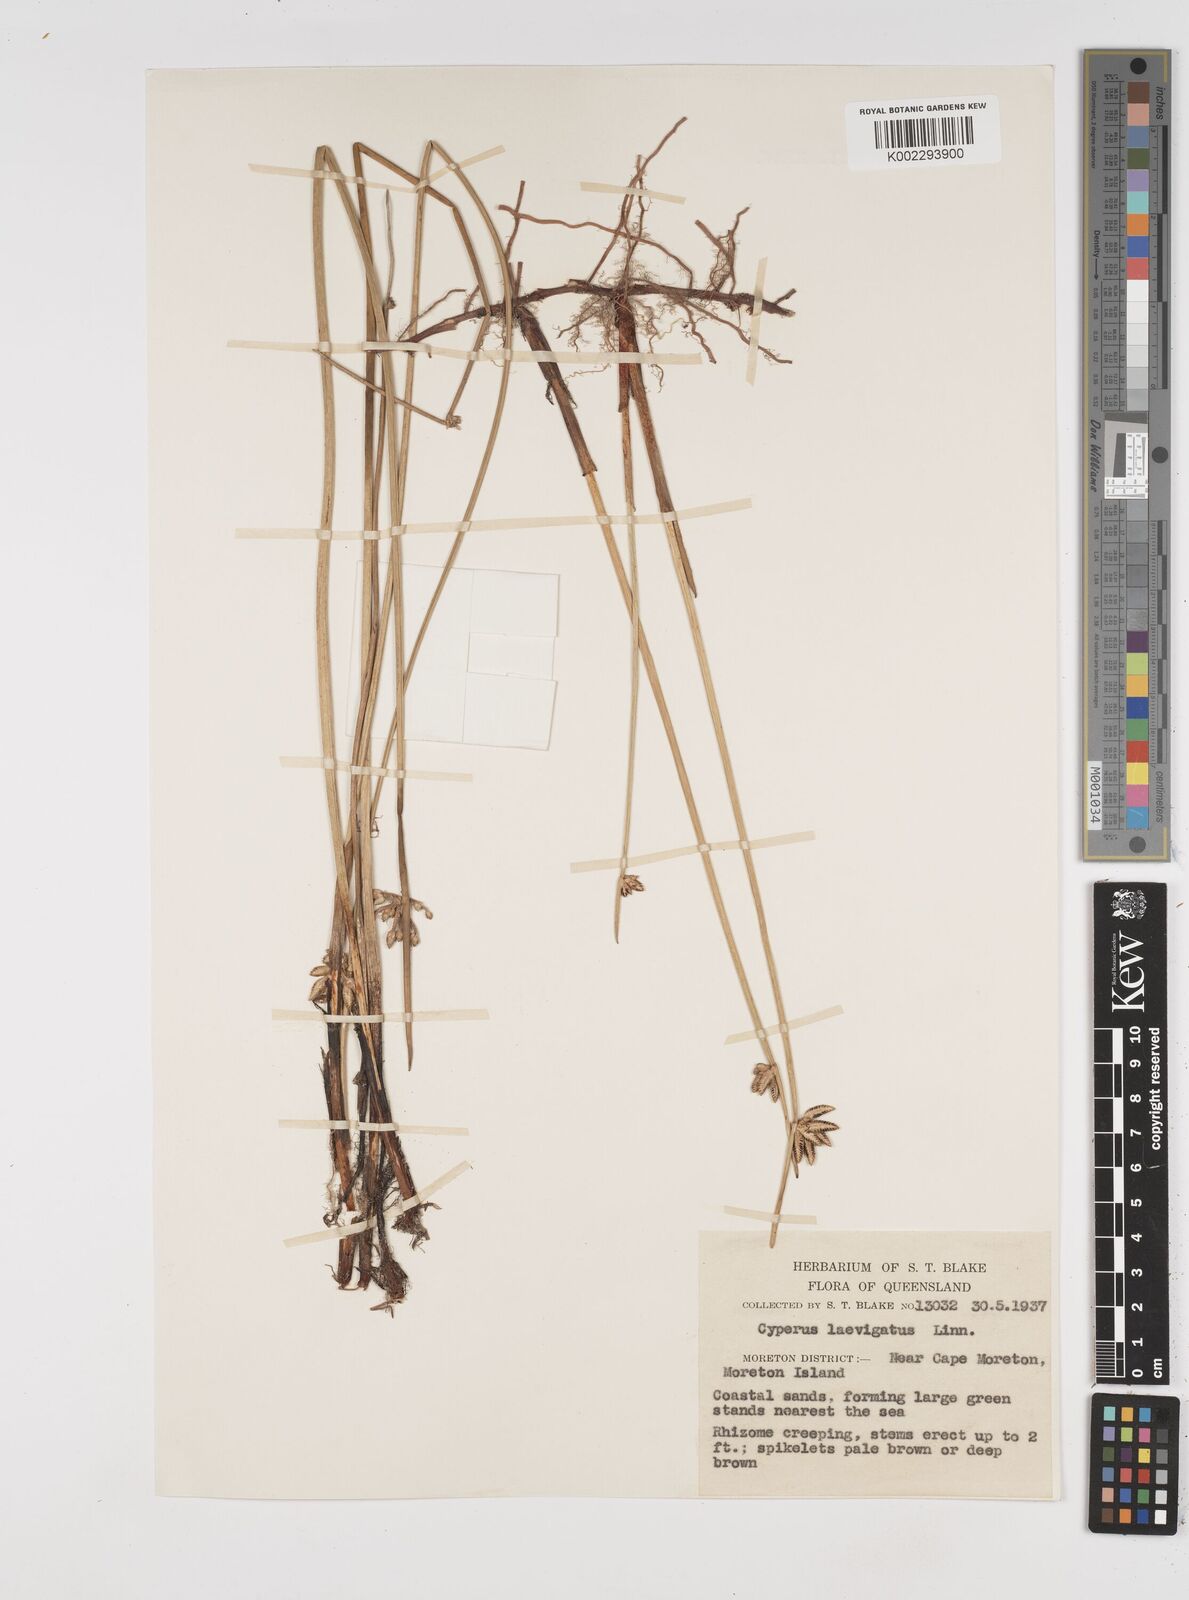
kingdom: Plantae
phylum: Tracheophyta
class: Liliopsida
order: Poales
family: Cyperaceae
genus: Cyperus
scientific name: Cyperus laevigatus
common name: Smooth flat sedge
